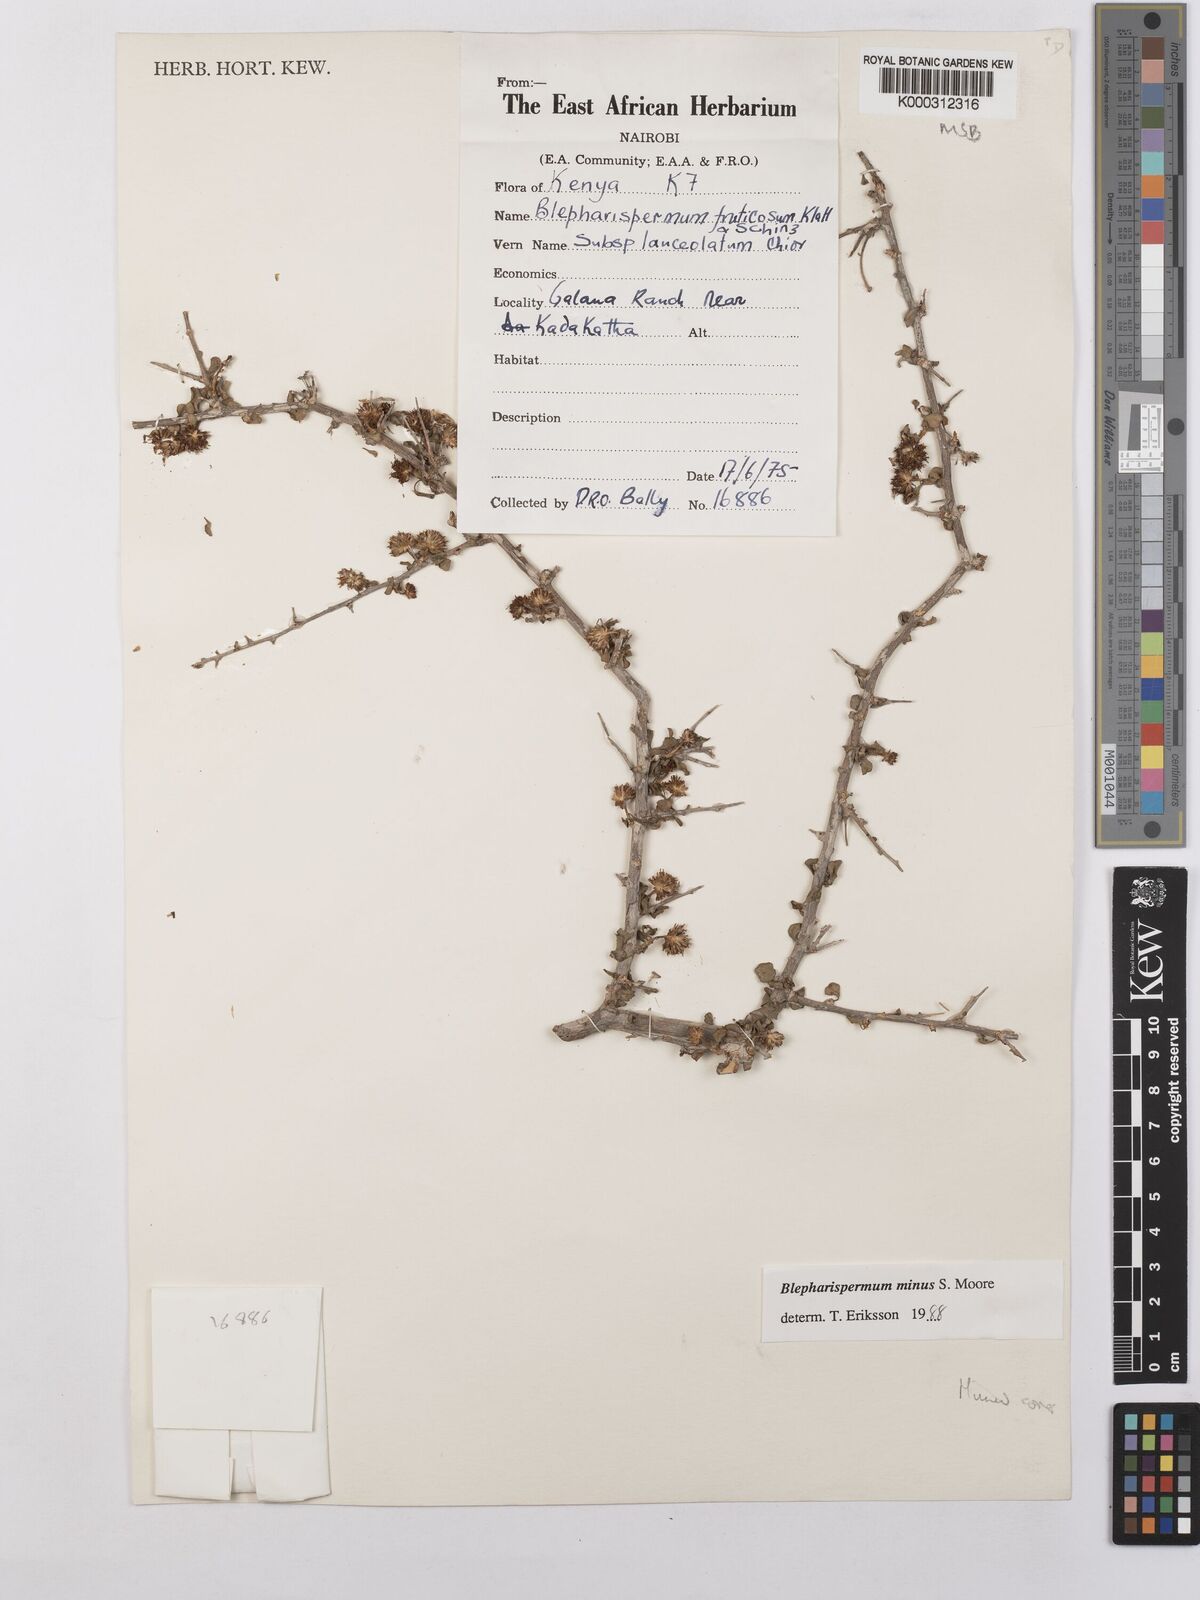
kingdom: Plantae
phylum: Tracheophyta
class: Magnoliopsida
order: Asterales
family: Asteraceae
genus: Blepharispermum
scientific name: Blepharispermum minus
